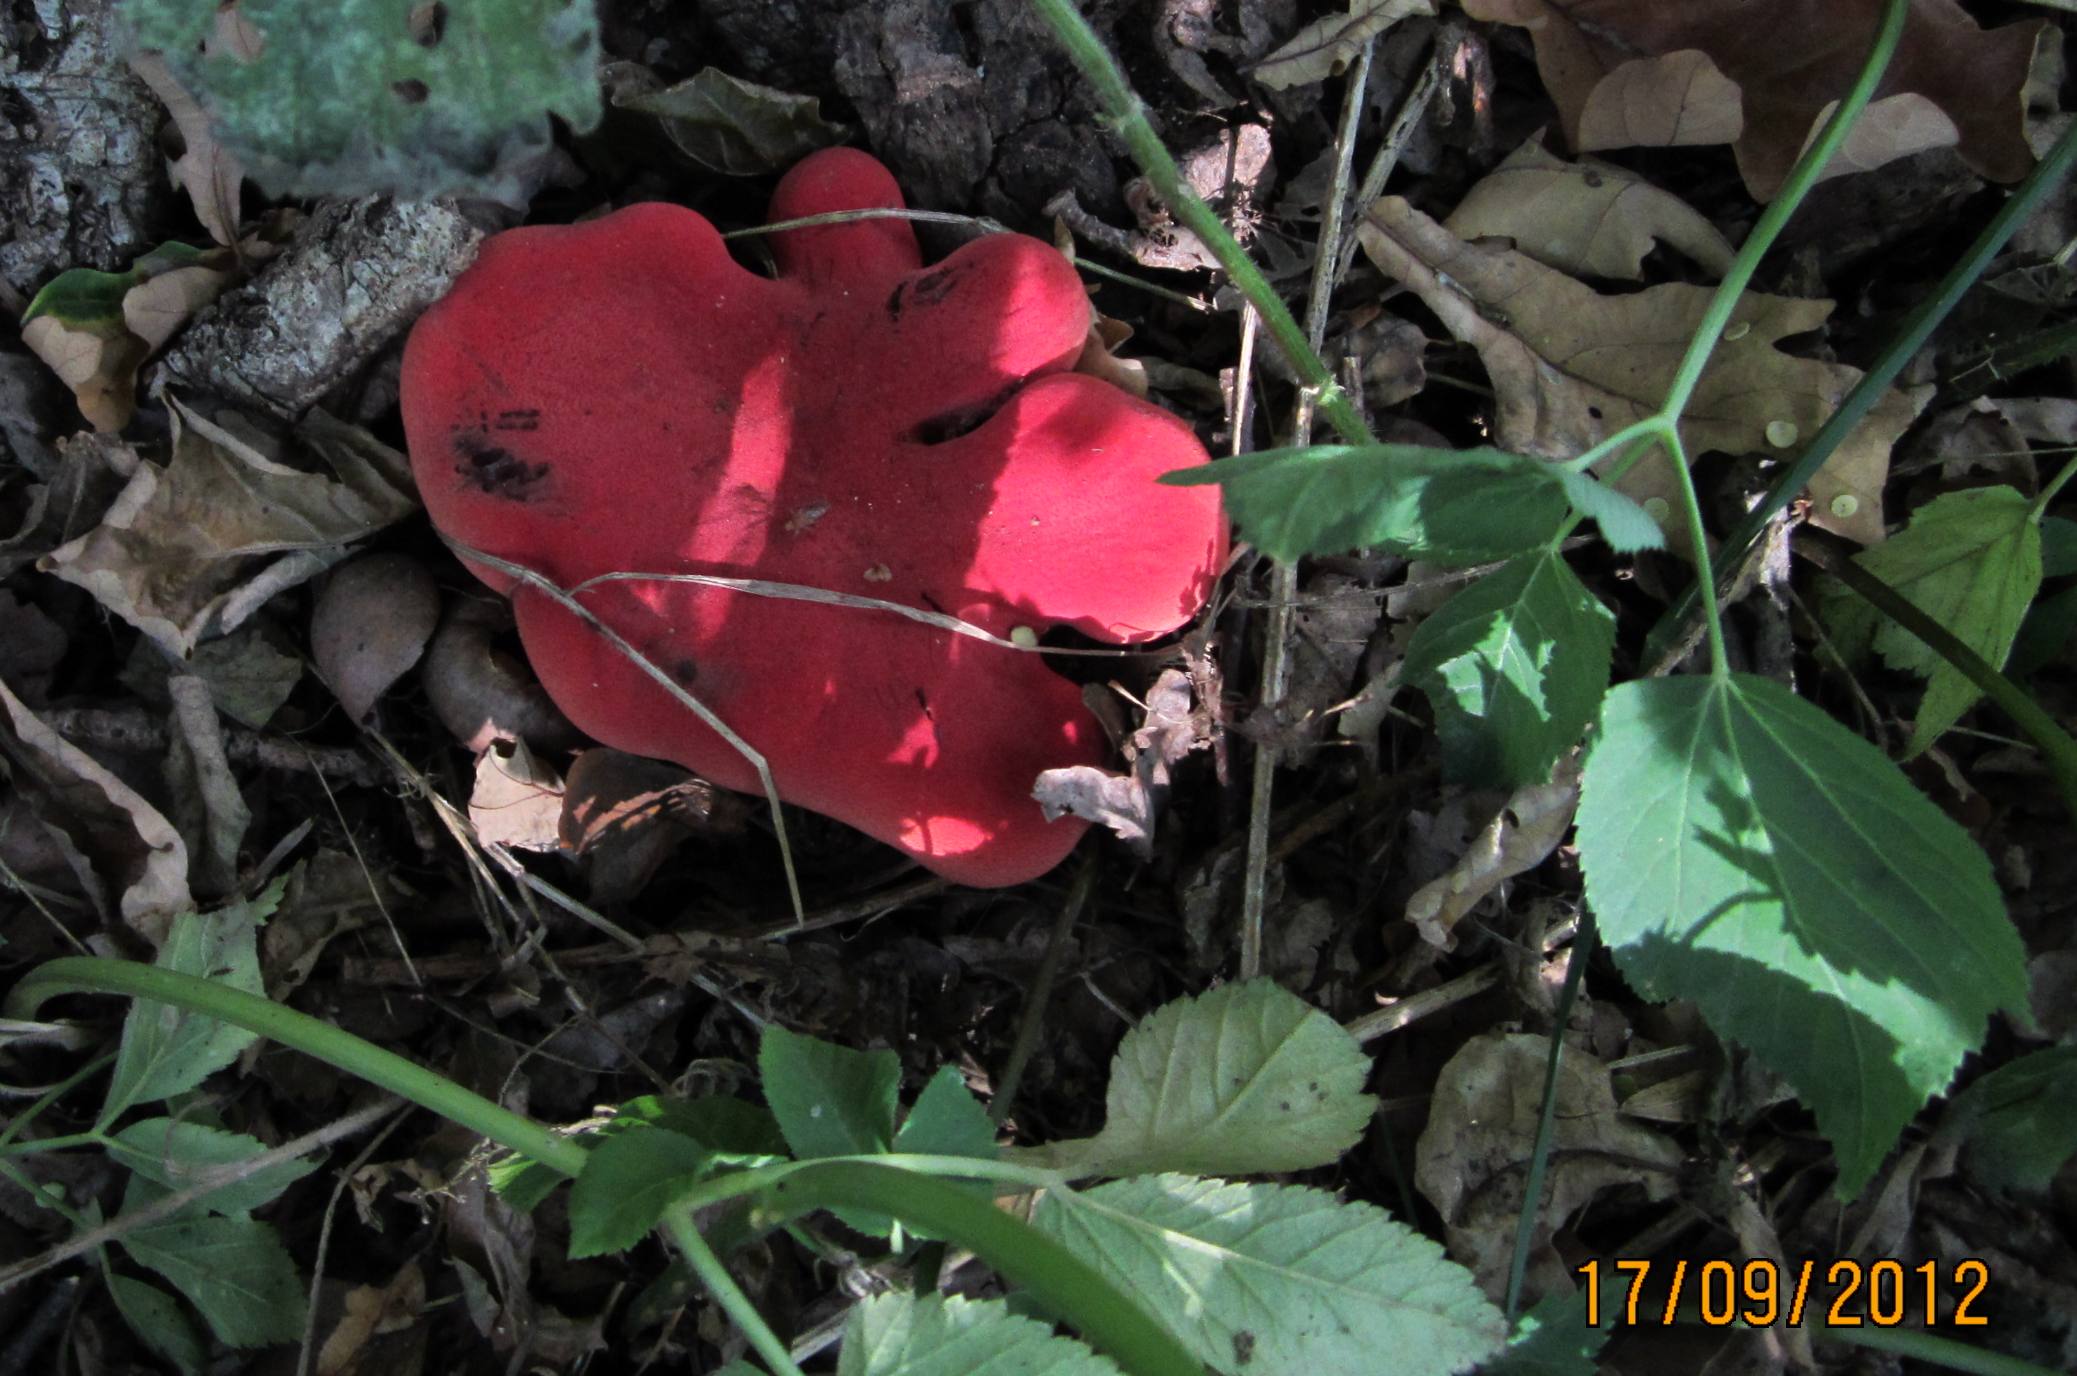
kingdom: Fungi
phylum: Basidiomycota
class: Agaricomycetes
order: Agaricales
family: Fistulinaceae
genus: Fistulina
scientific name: Fistulina hepatica
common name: oksetunge
